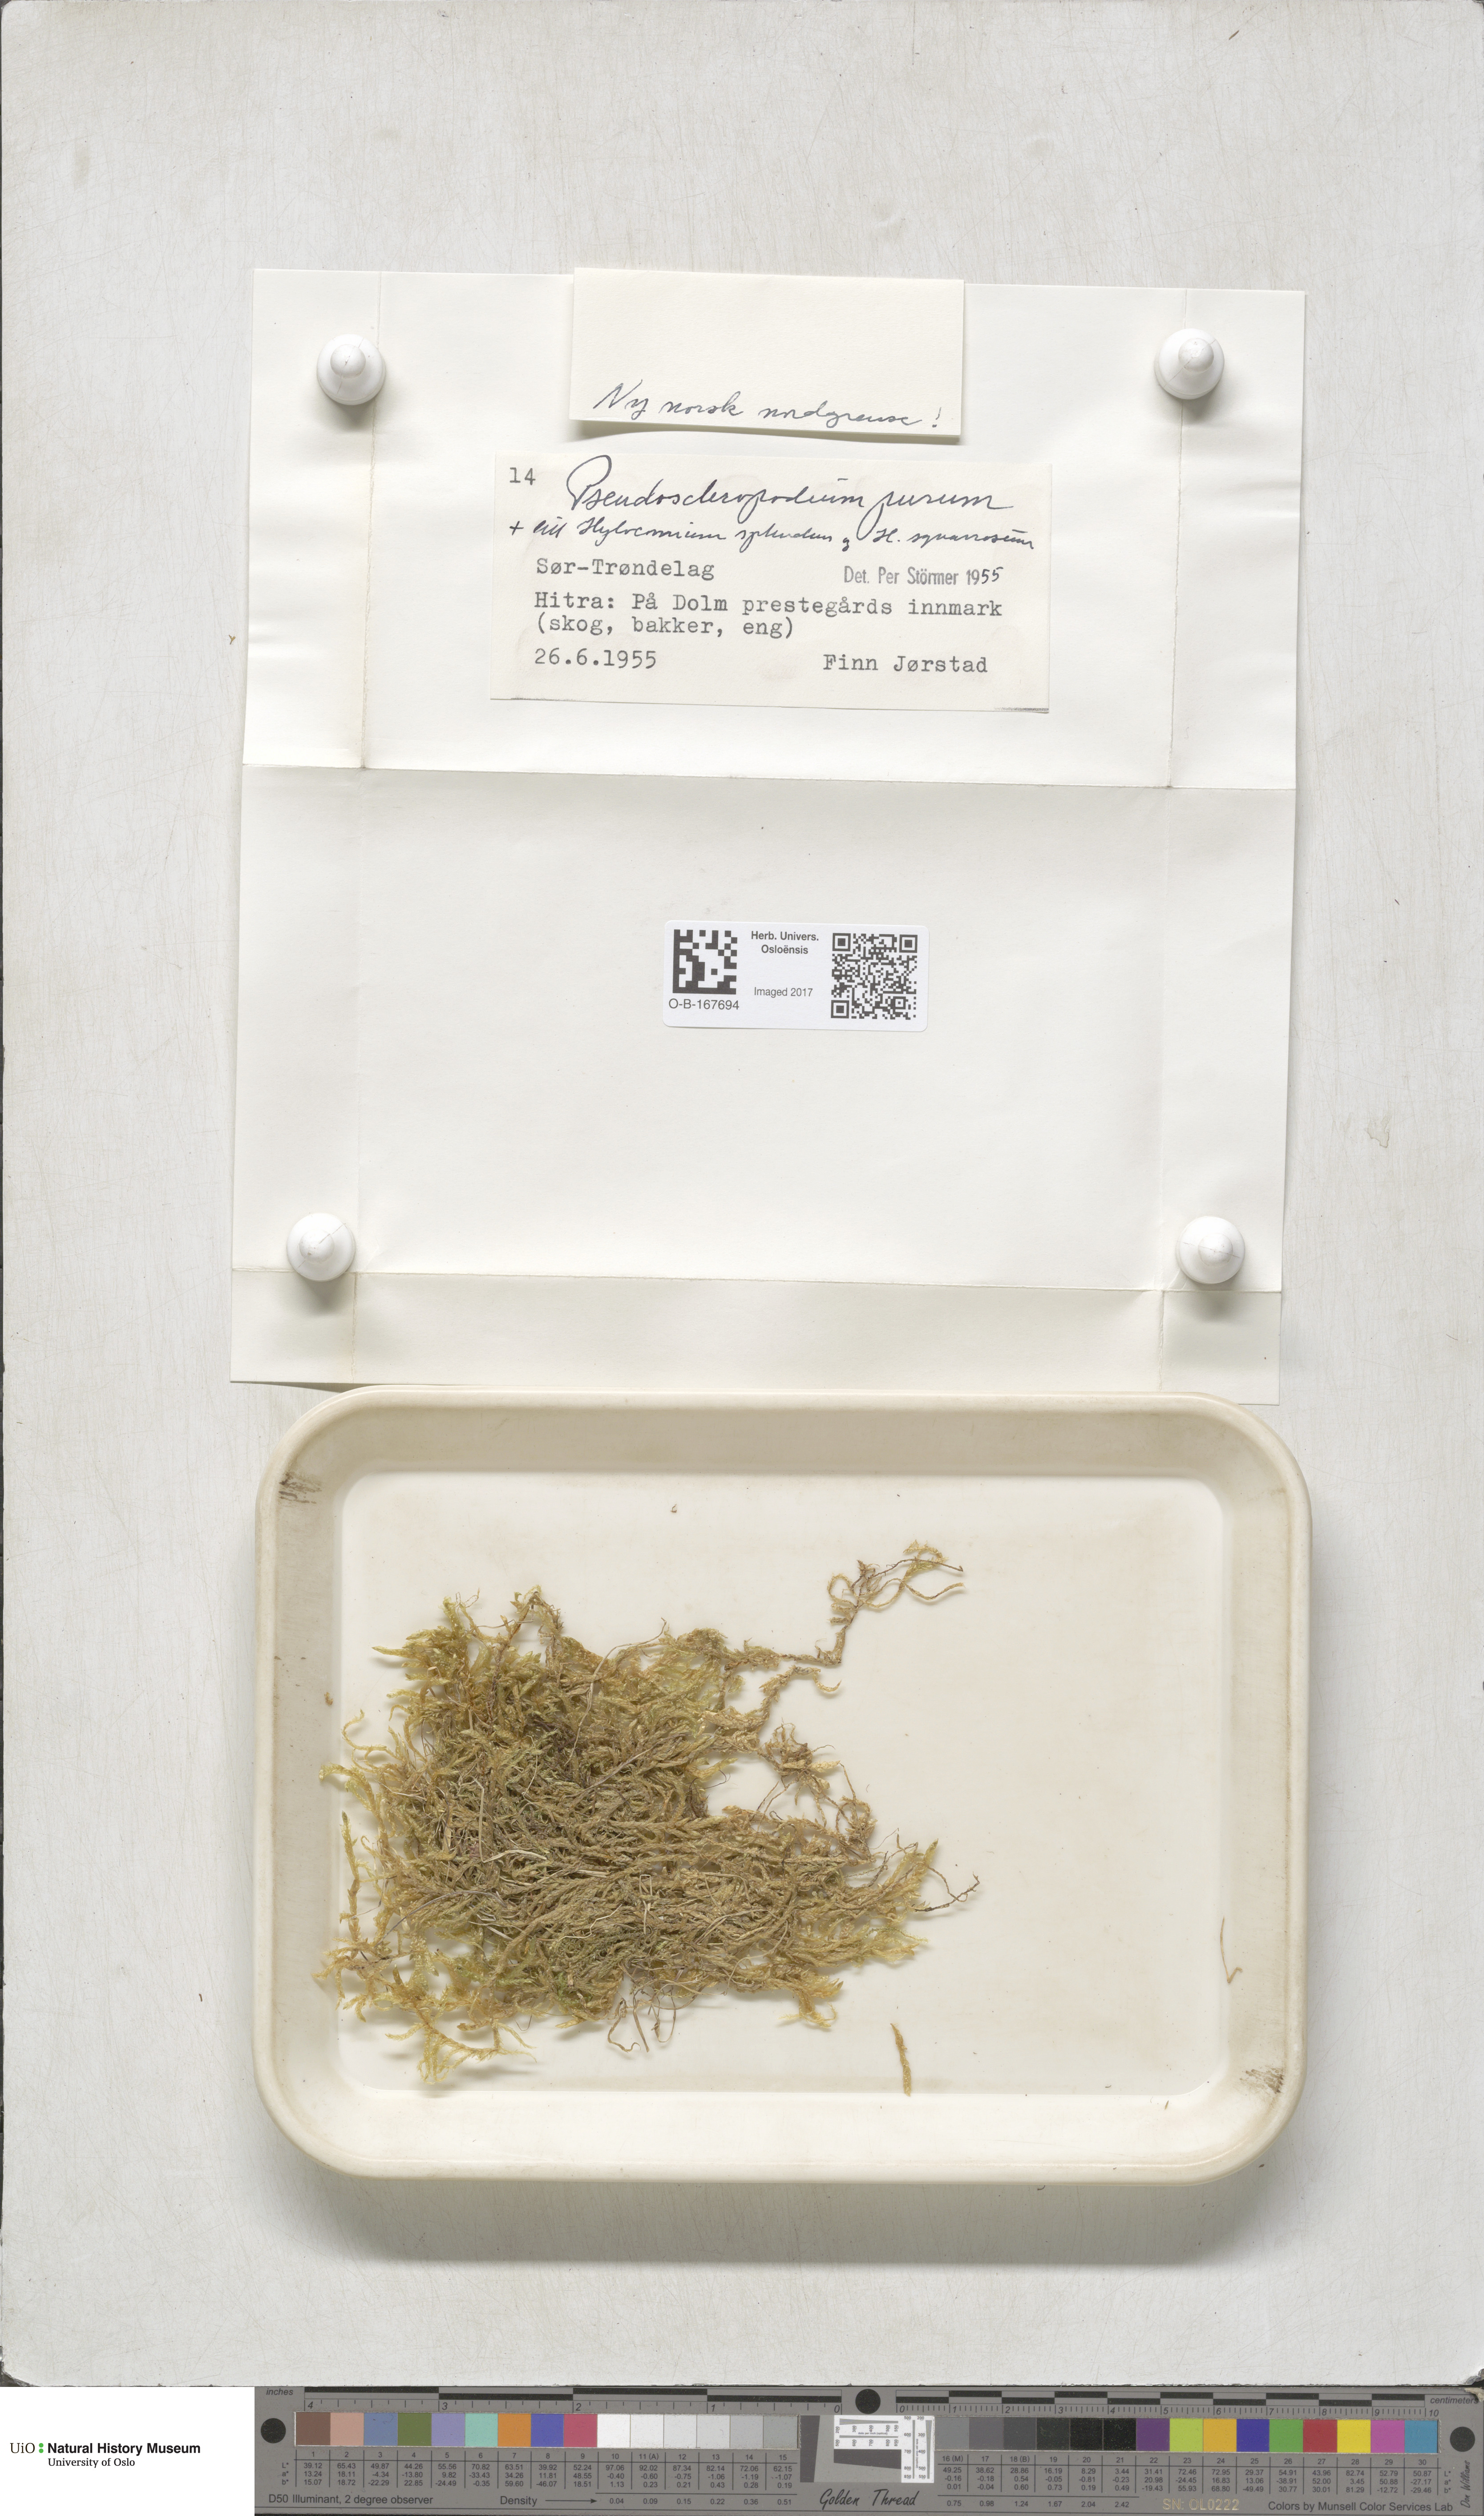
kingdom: Plantae
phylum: Bryophyta
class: Bryopsida
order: Hypnales
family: Brachytheciaceae
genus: Pseudoscleropodium
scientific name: Pseudoscleropodium purum
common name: Neat feather-moss
